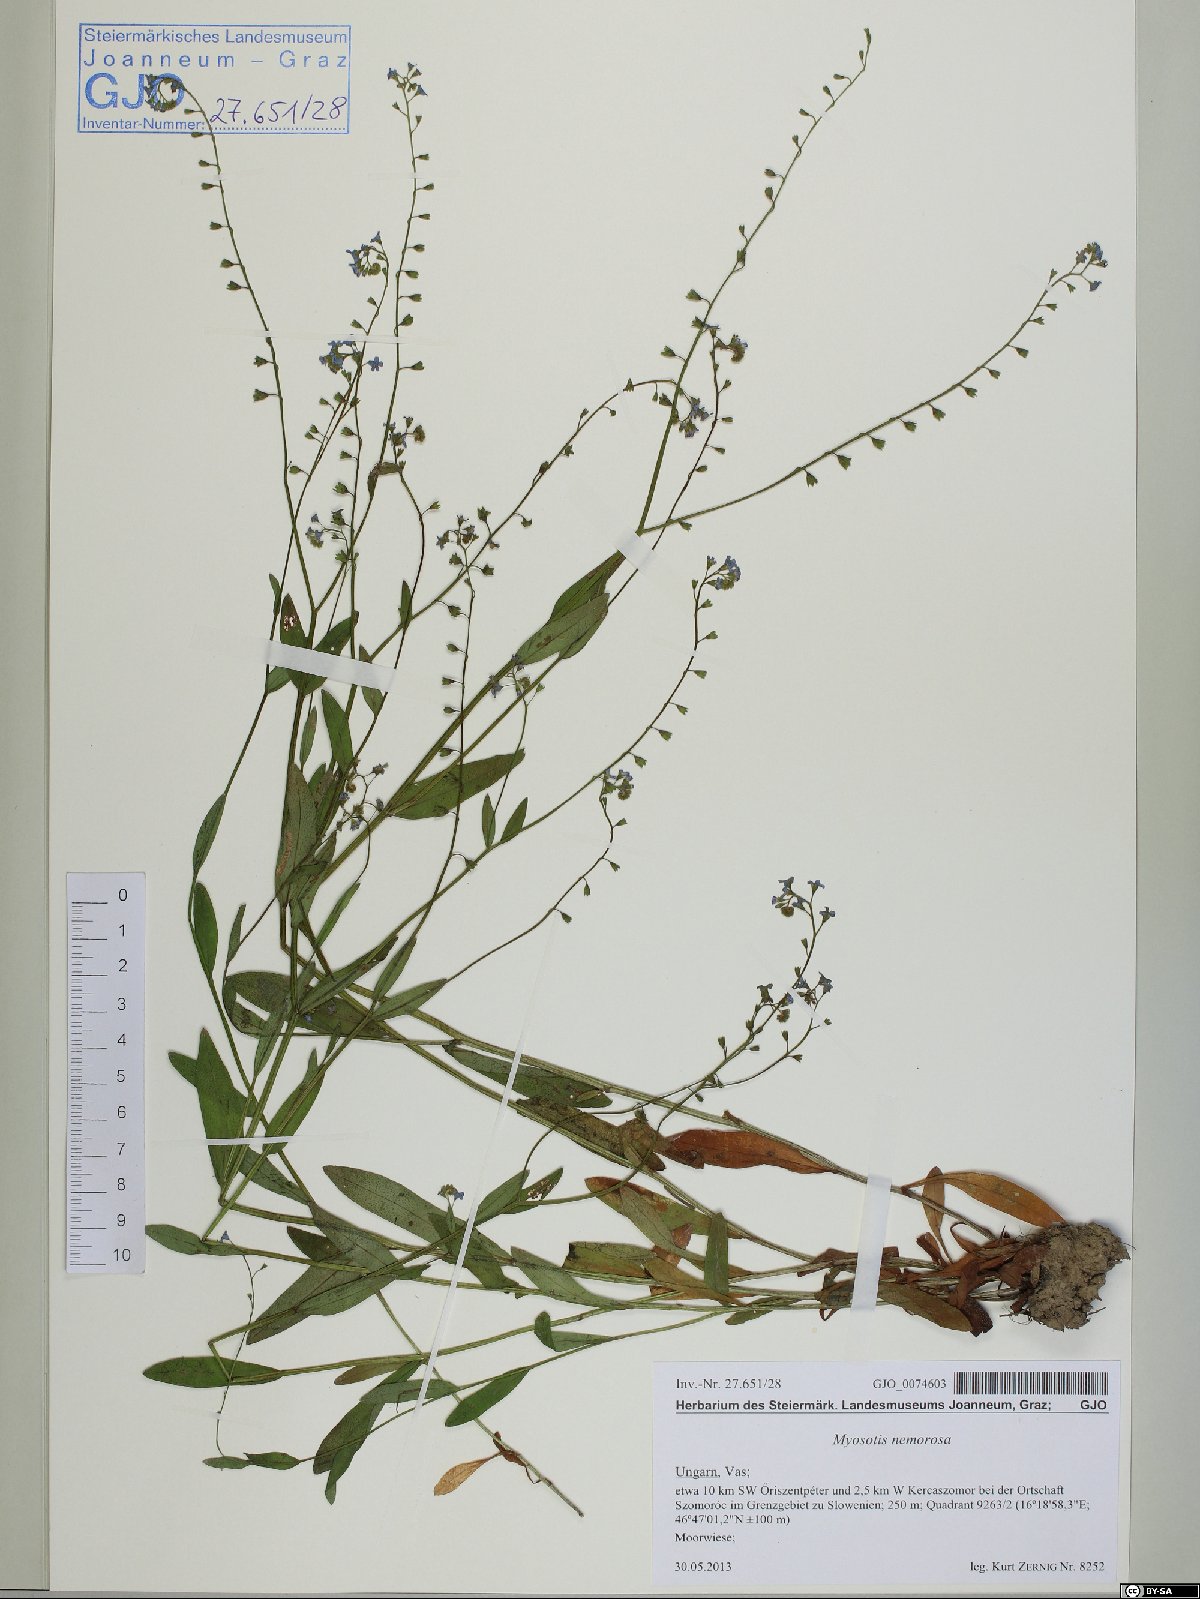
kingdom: Plantae
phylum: Tracheophyta
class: Magnoliopsida
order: Boraginales
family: Boraginaceae
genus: Myosotis
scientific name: Myosotis nemorosa
